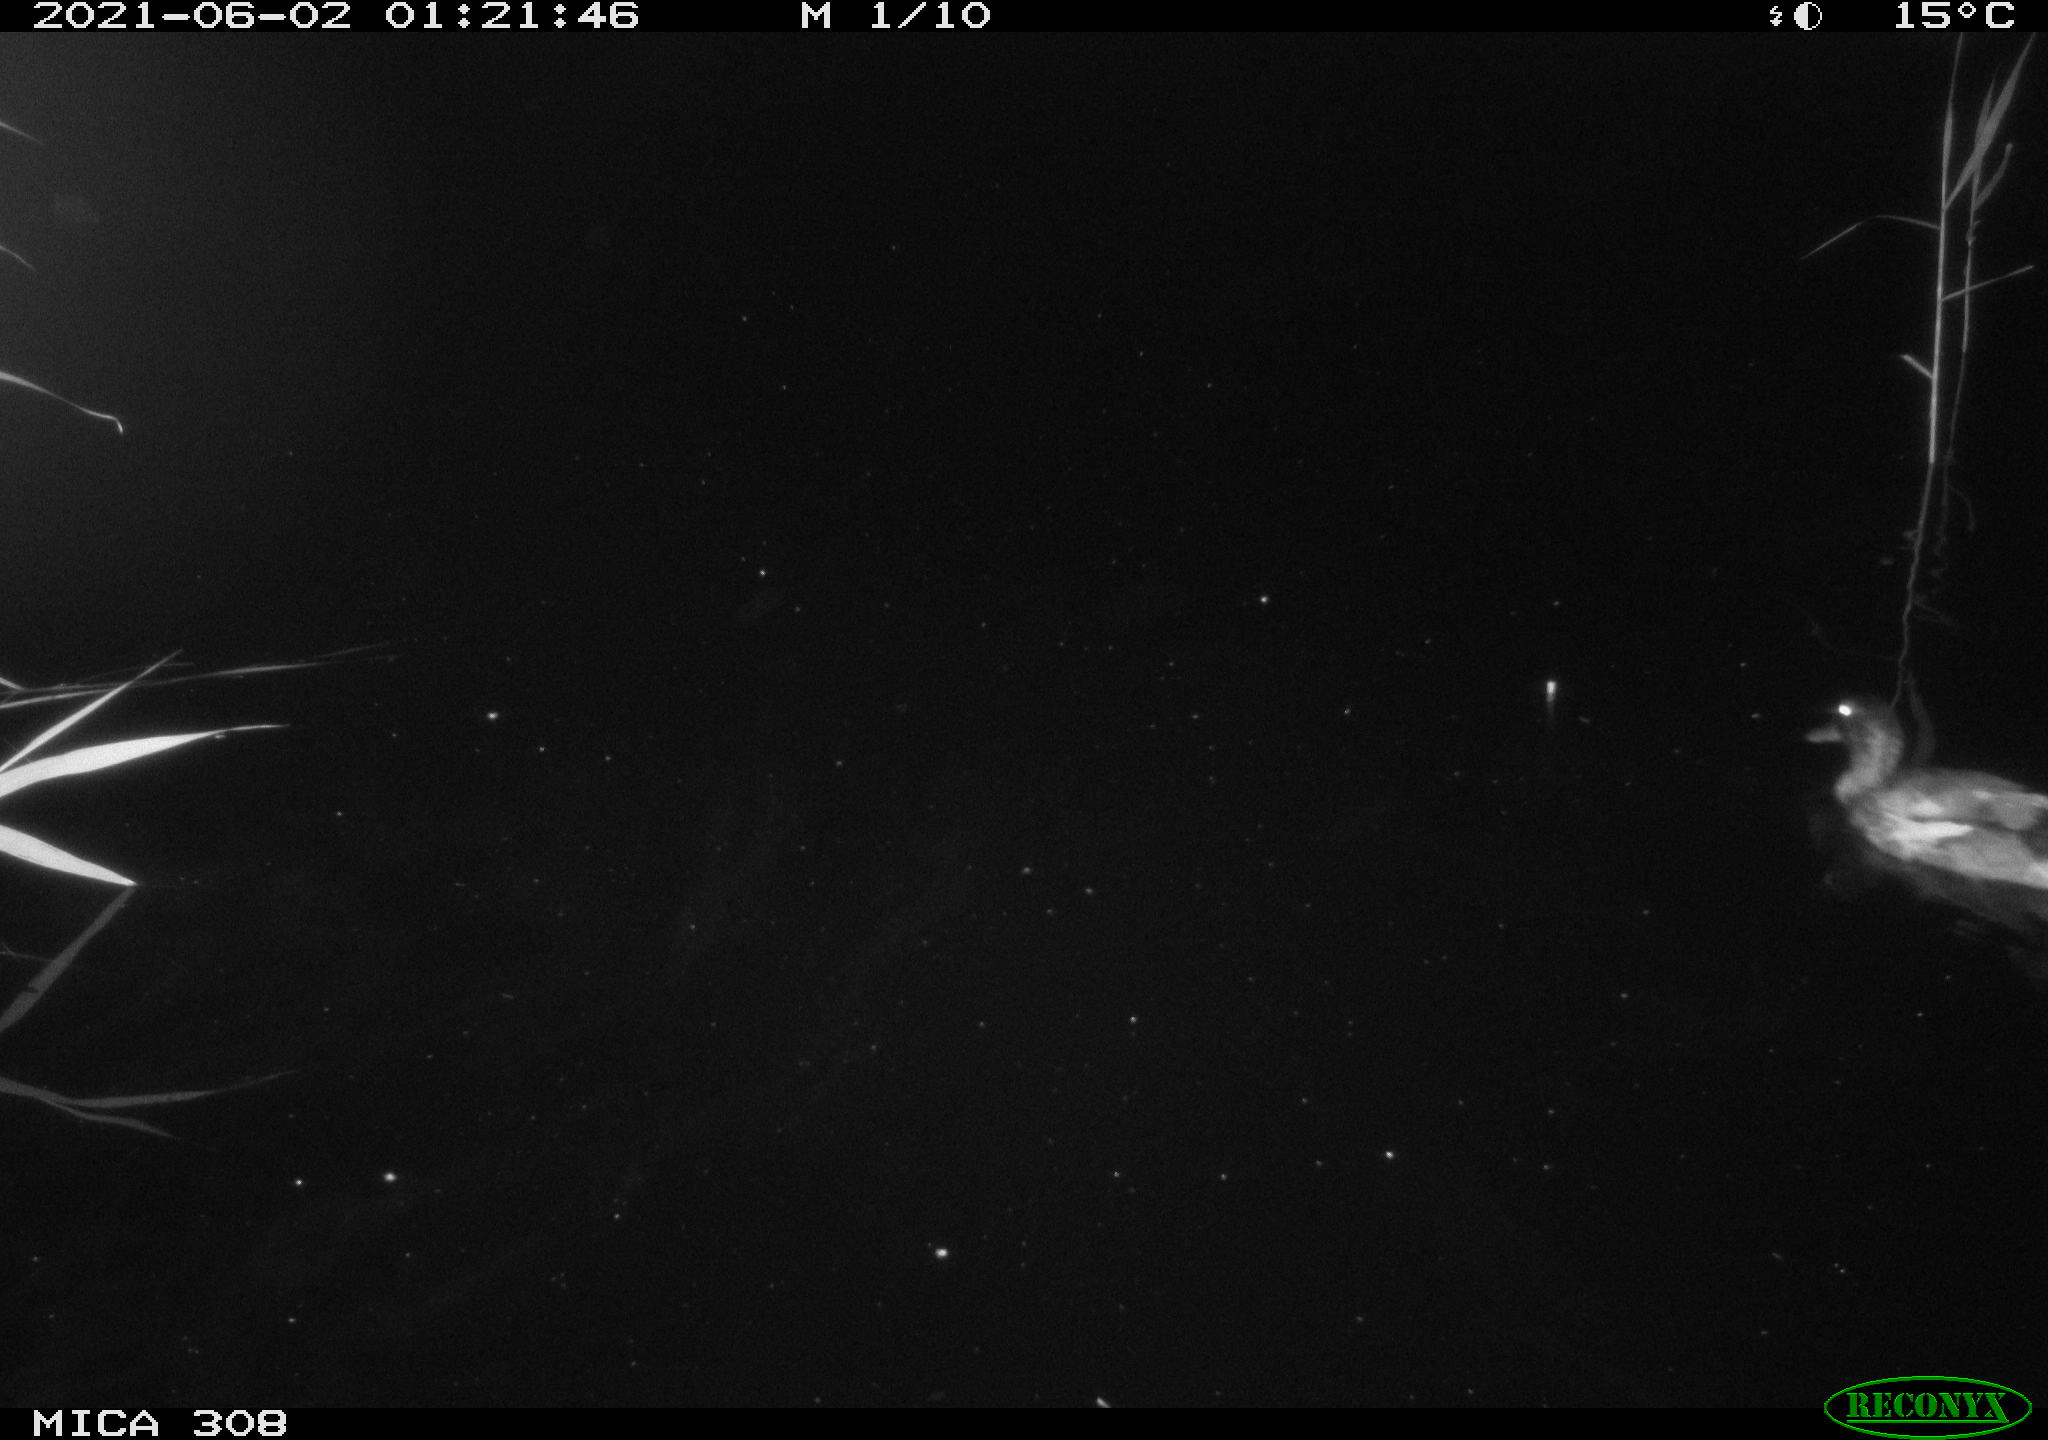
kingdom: Animalia
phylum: Chordata
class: Aves
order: Anseriformes
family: Anatidae
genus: Anas
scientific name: Anas platyrhynchos
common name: Mallard
